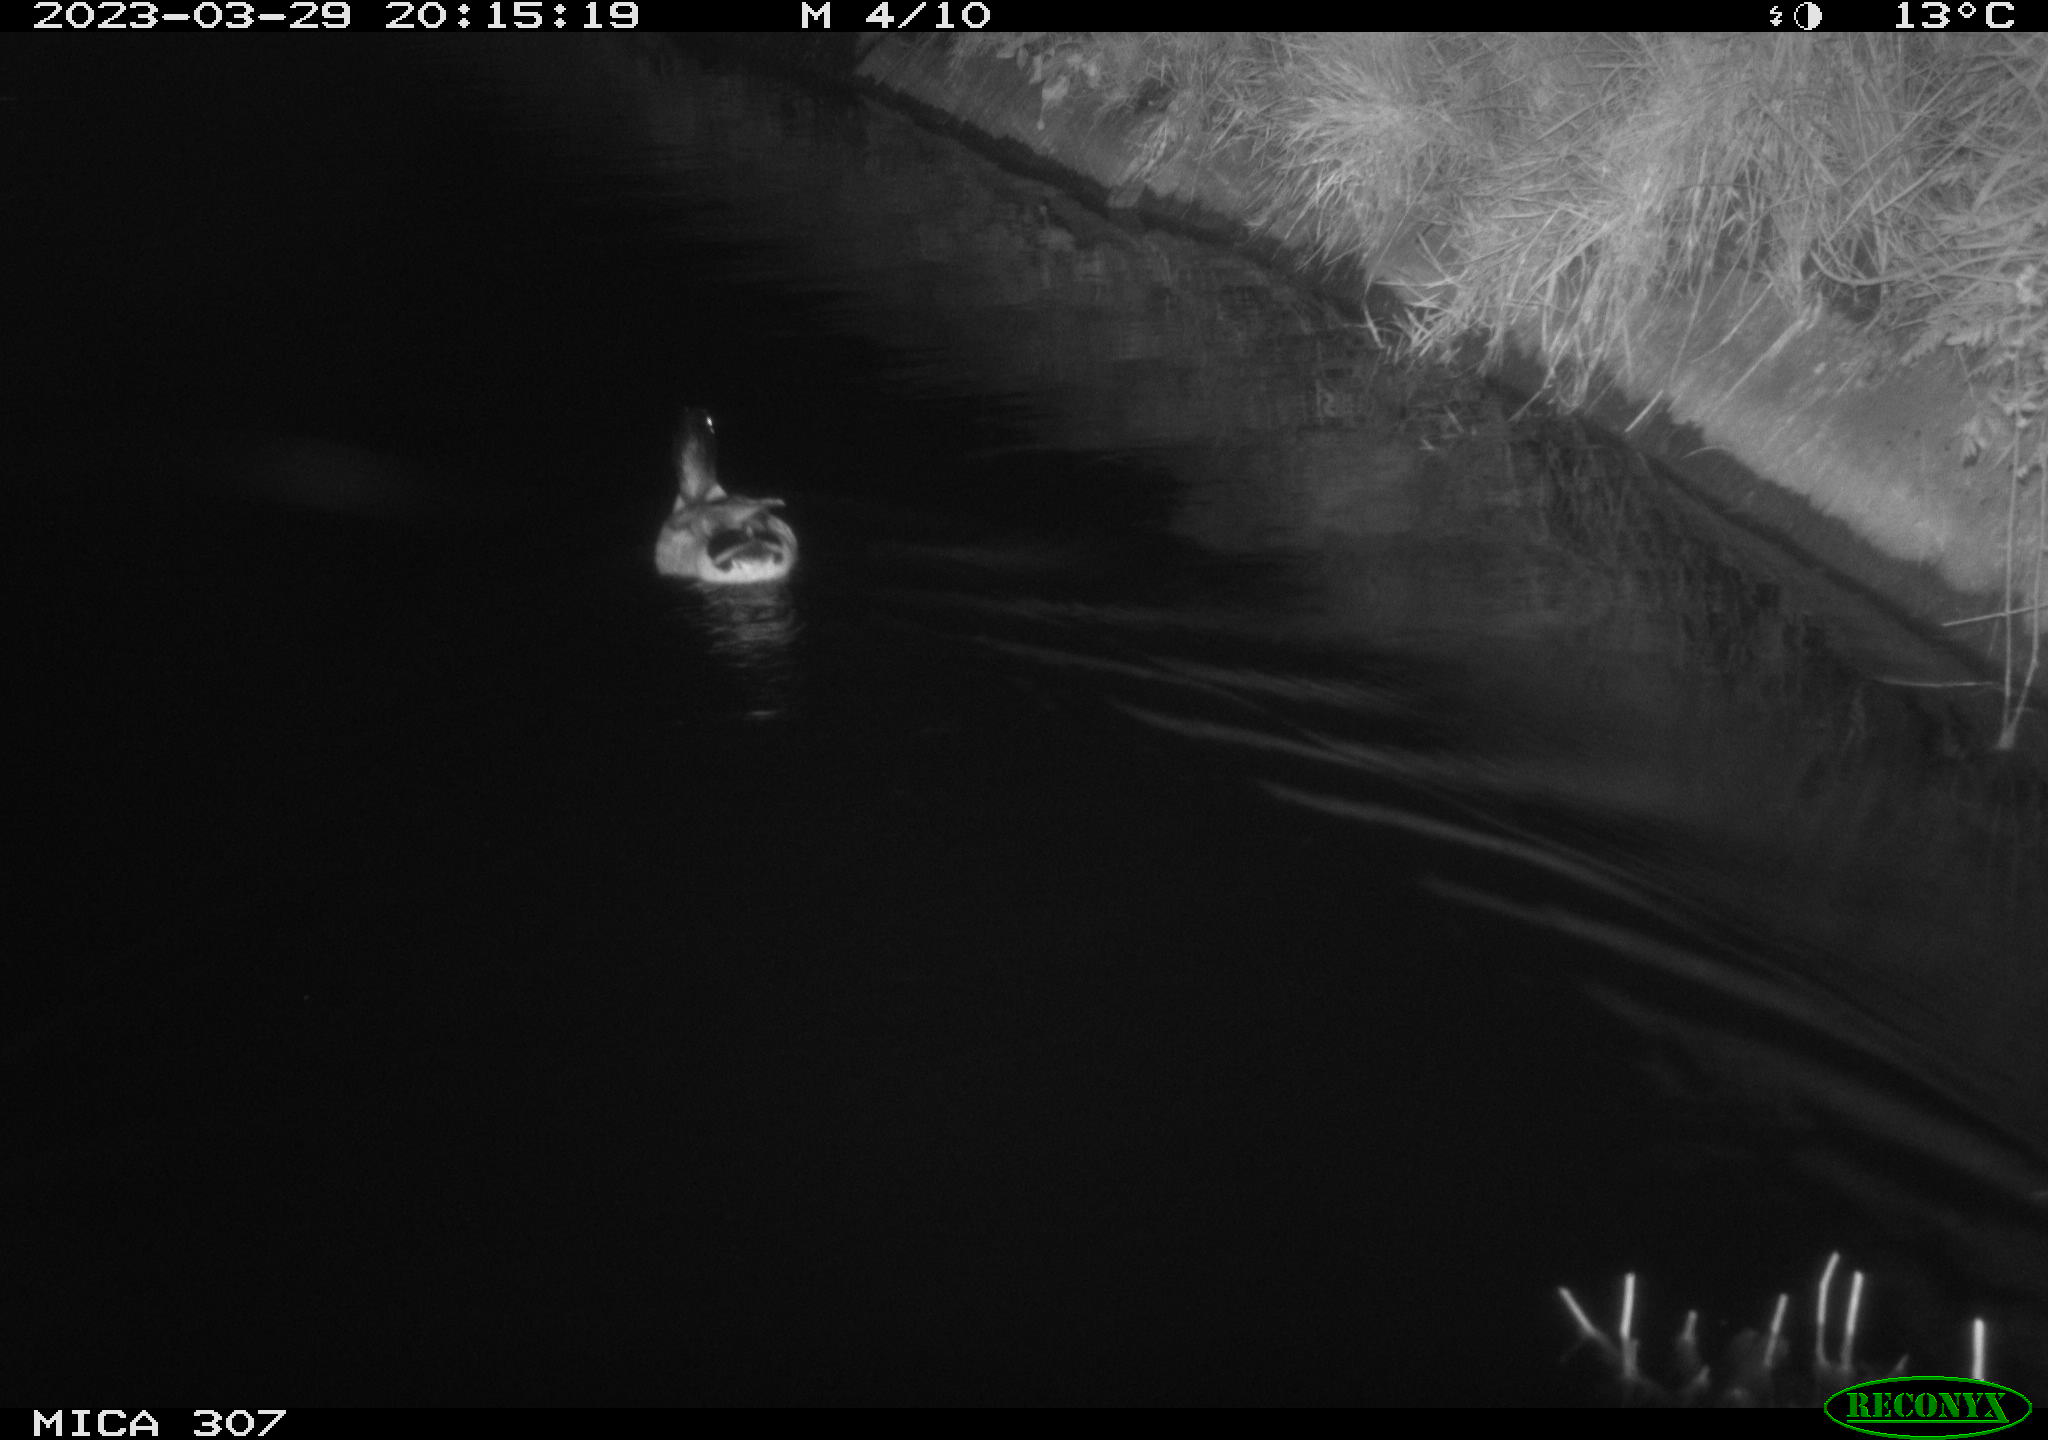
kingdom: Animalia
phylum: Chordata
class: Aves
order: Anseriformes
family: Anatidae
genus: Anas
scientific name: Anas
